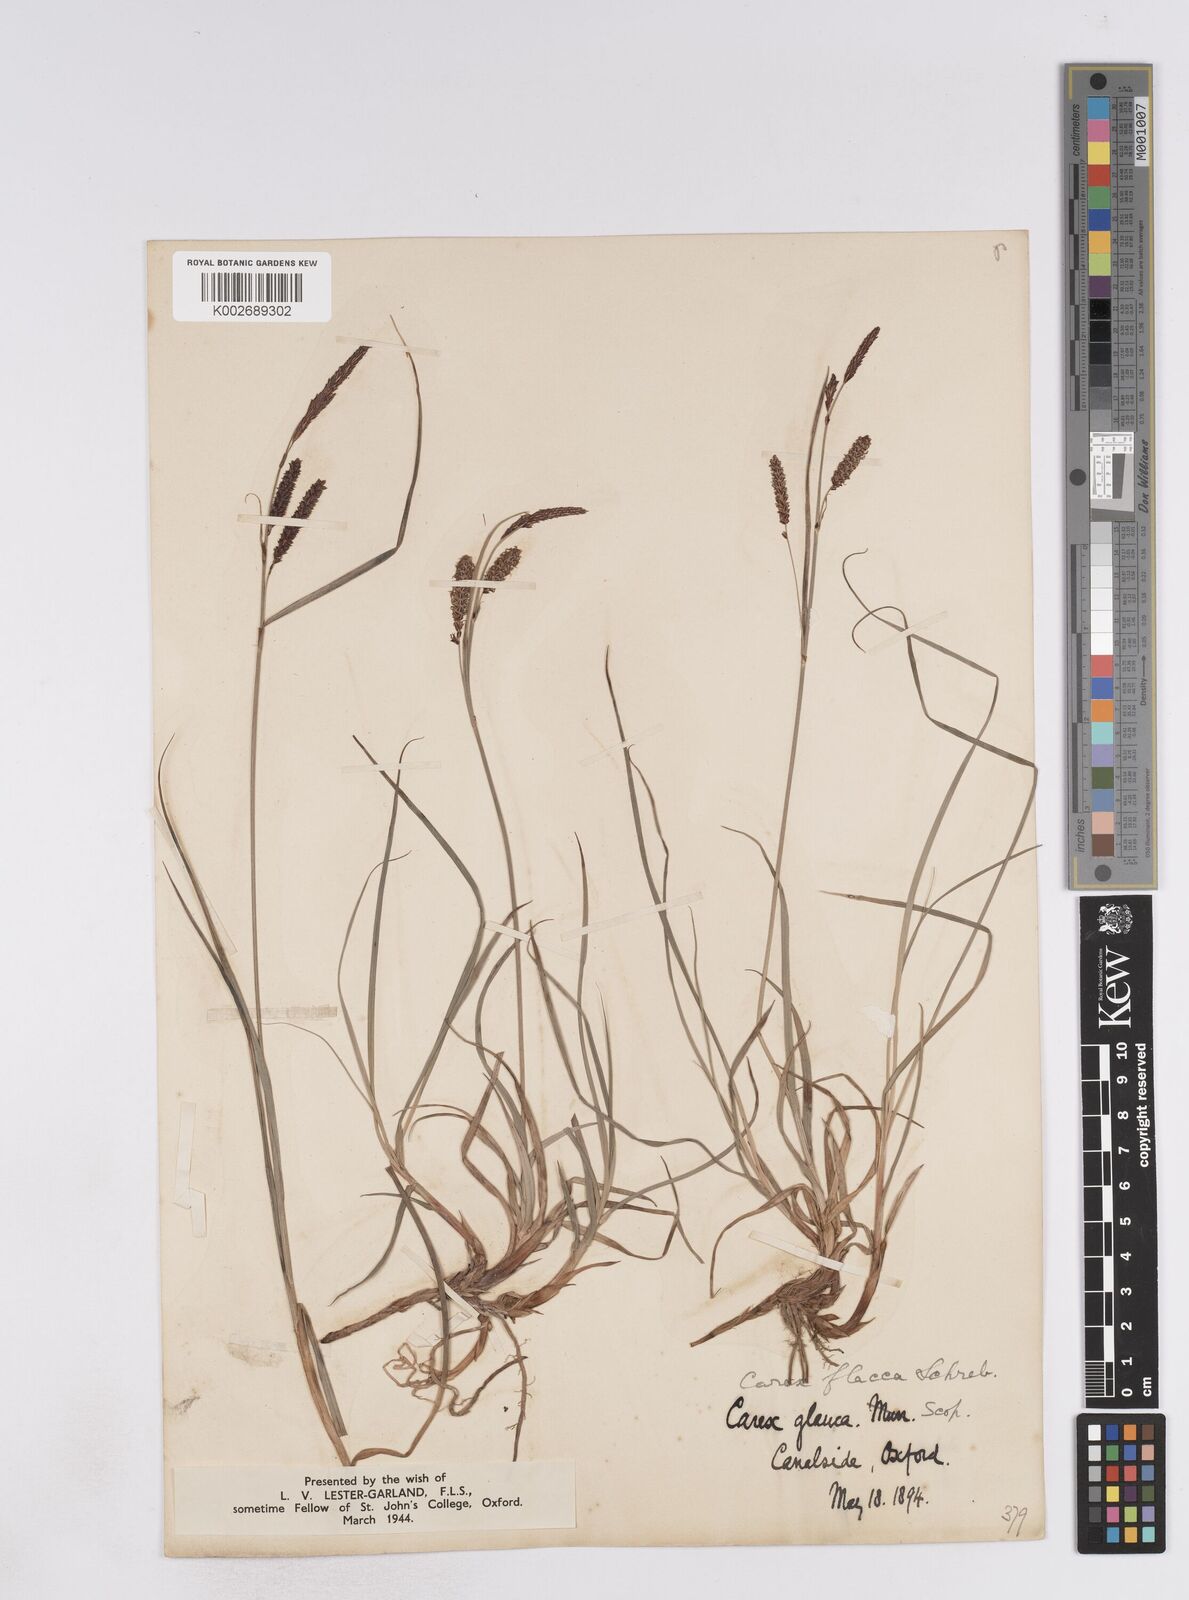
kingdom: Plantae
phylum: Tracheophyta
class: Liliopsida
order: Poales
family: Cyperaceae
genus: Carex
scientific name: Carex flacca
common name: Glaucous sedge
